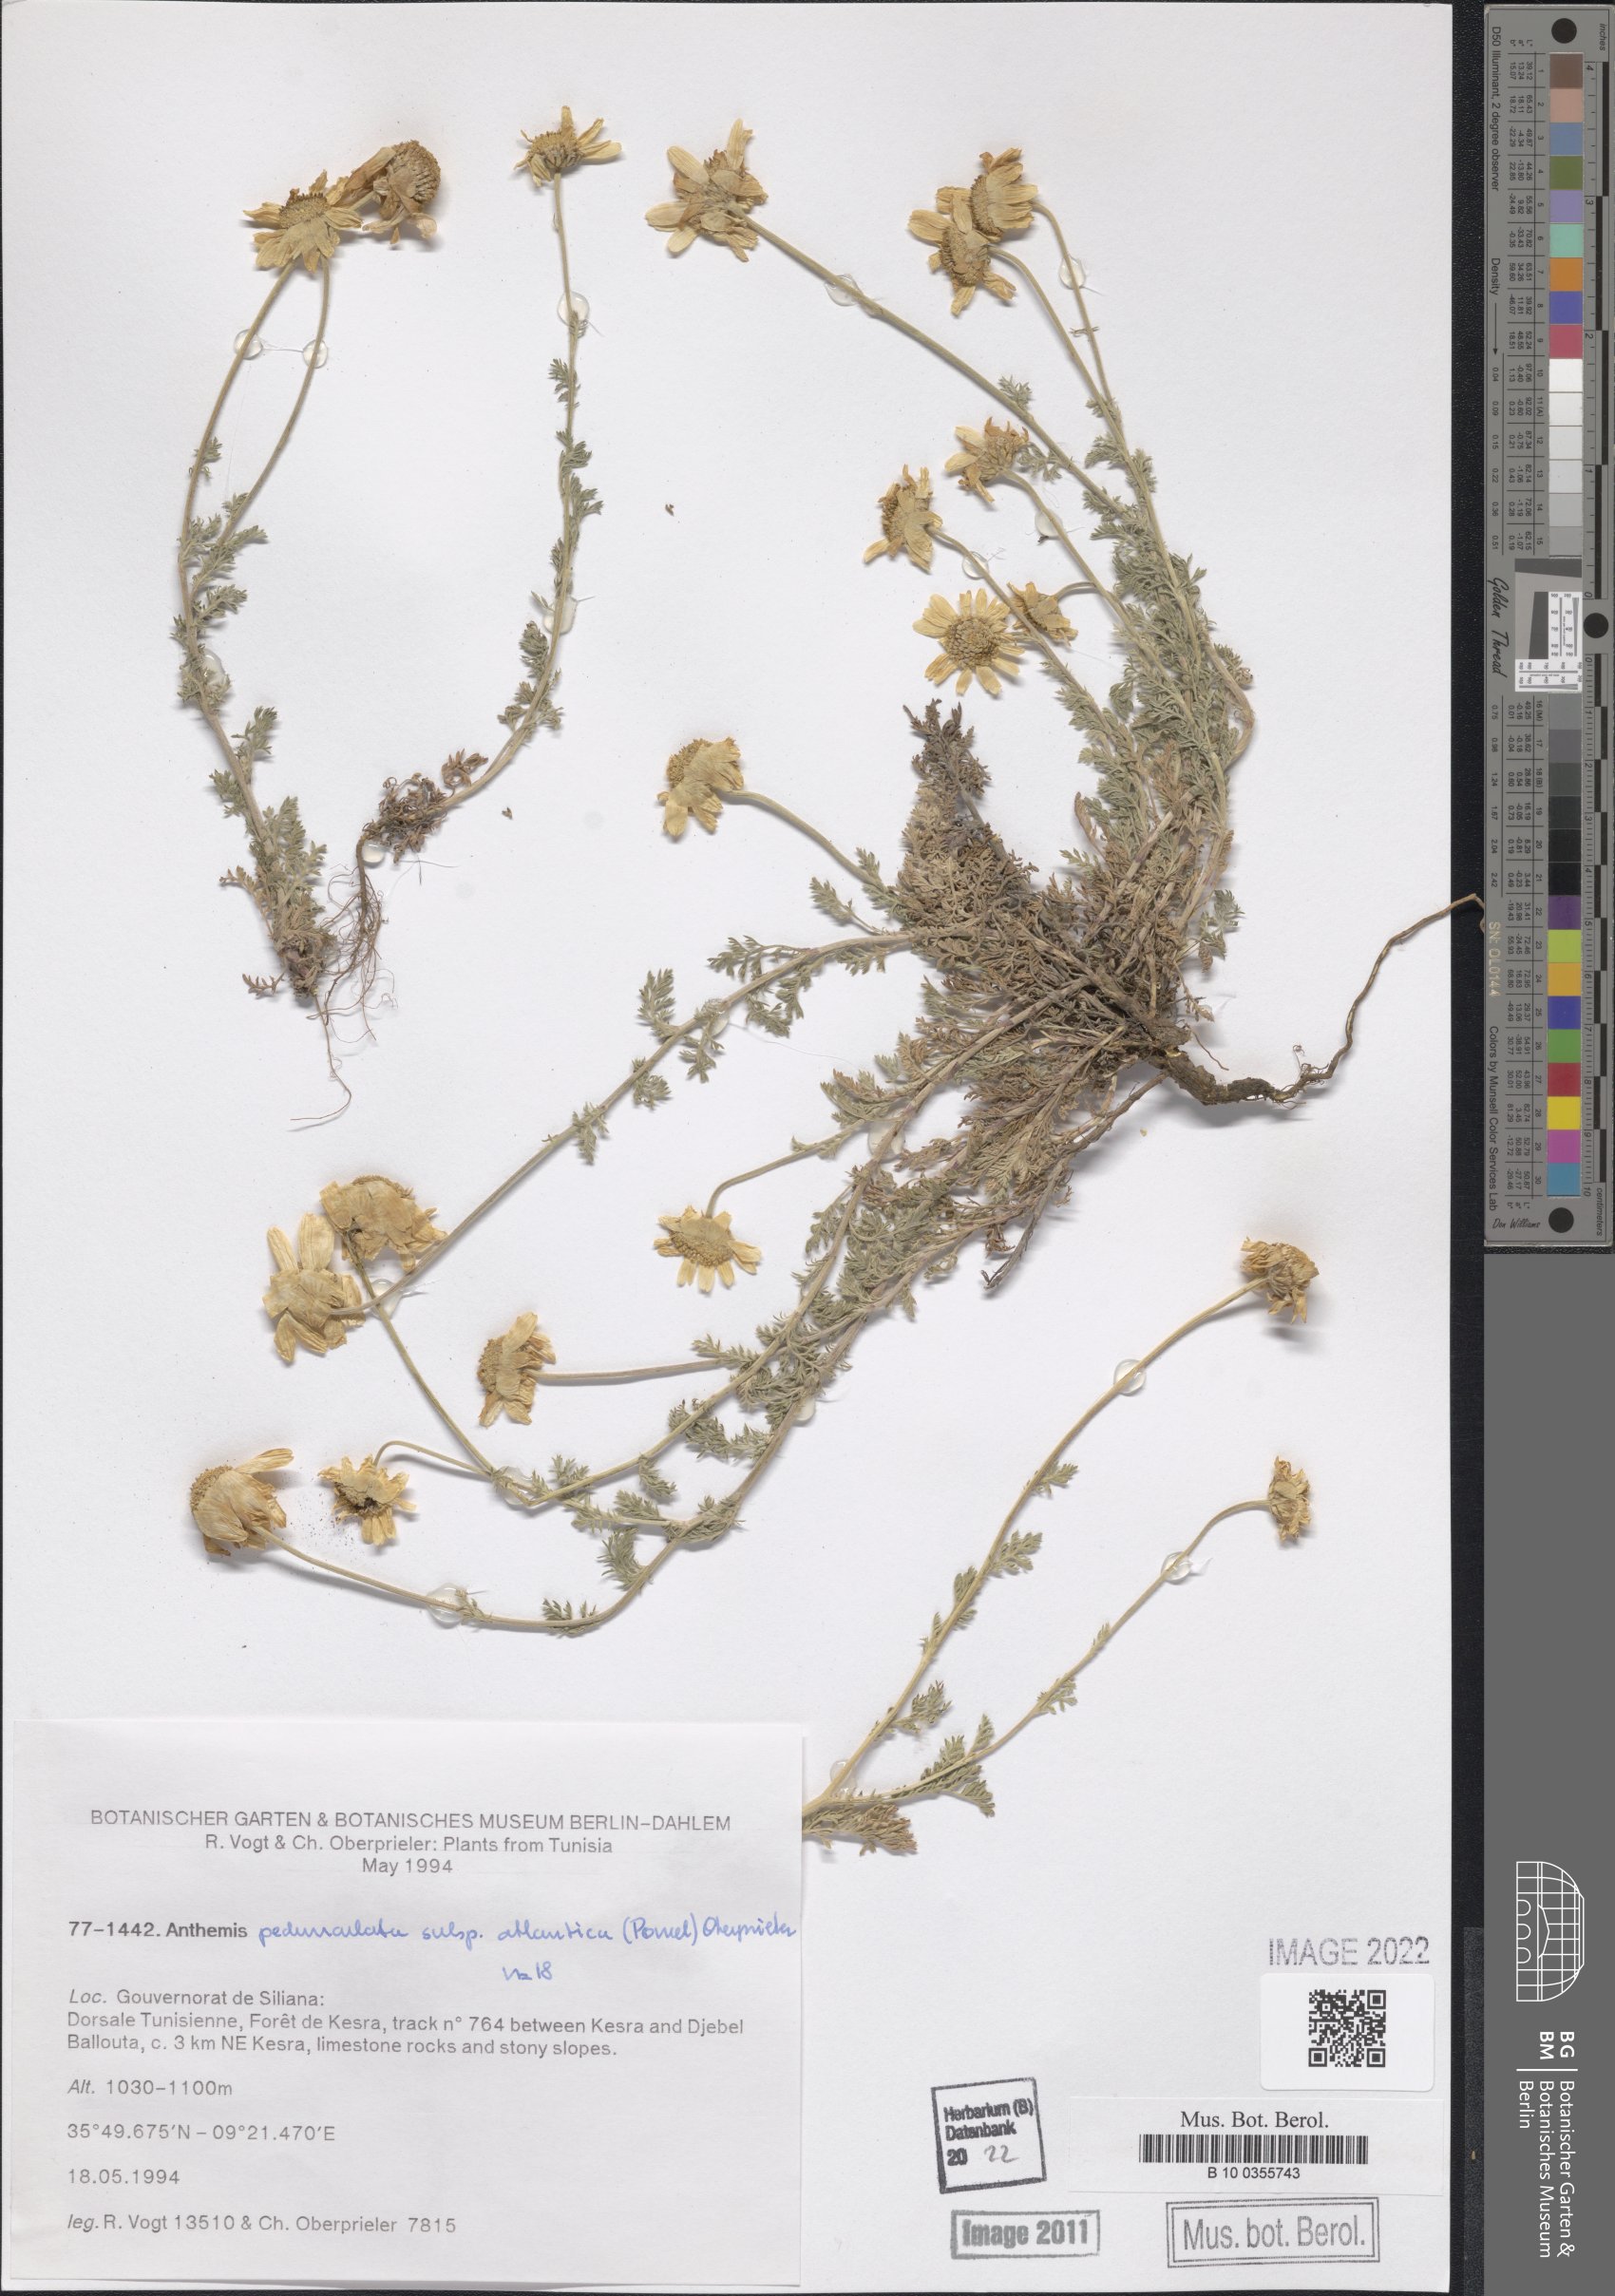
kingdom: Plantae
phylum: Tracheophyta
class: Magnoliopsida
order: Asterales
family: Asteraceae
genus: Anthemis
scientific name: Anthemis pedunculata
